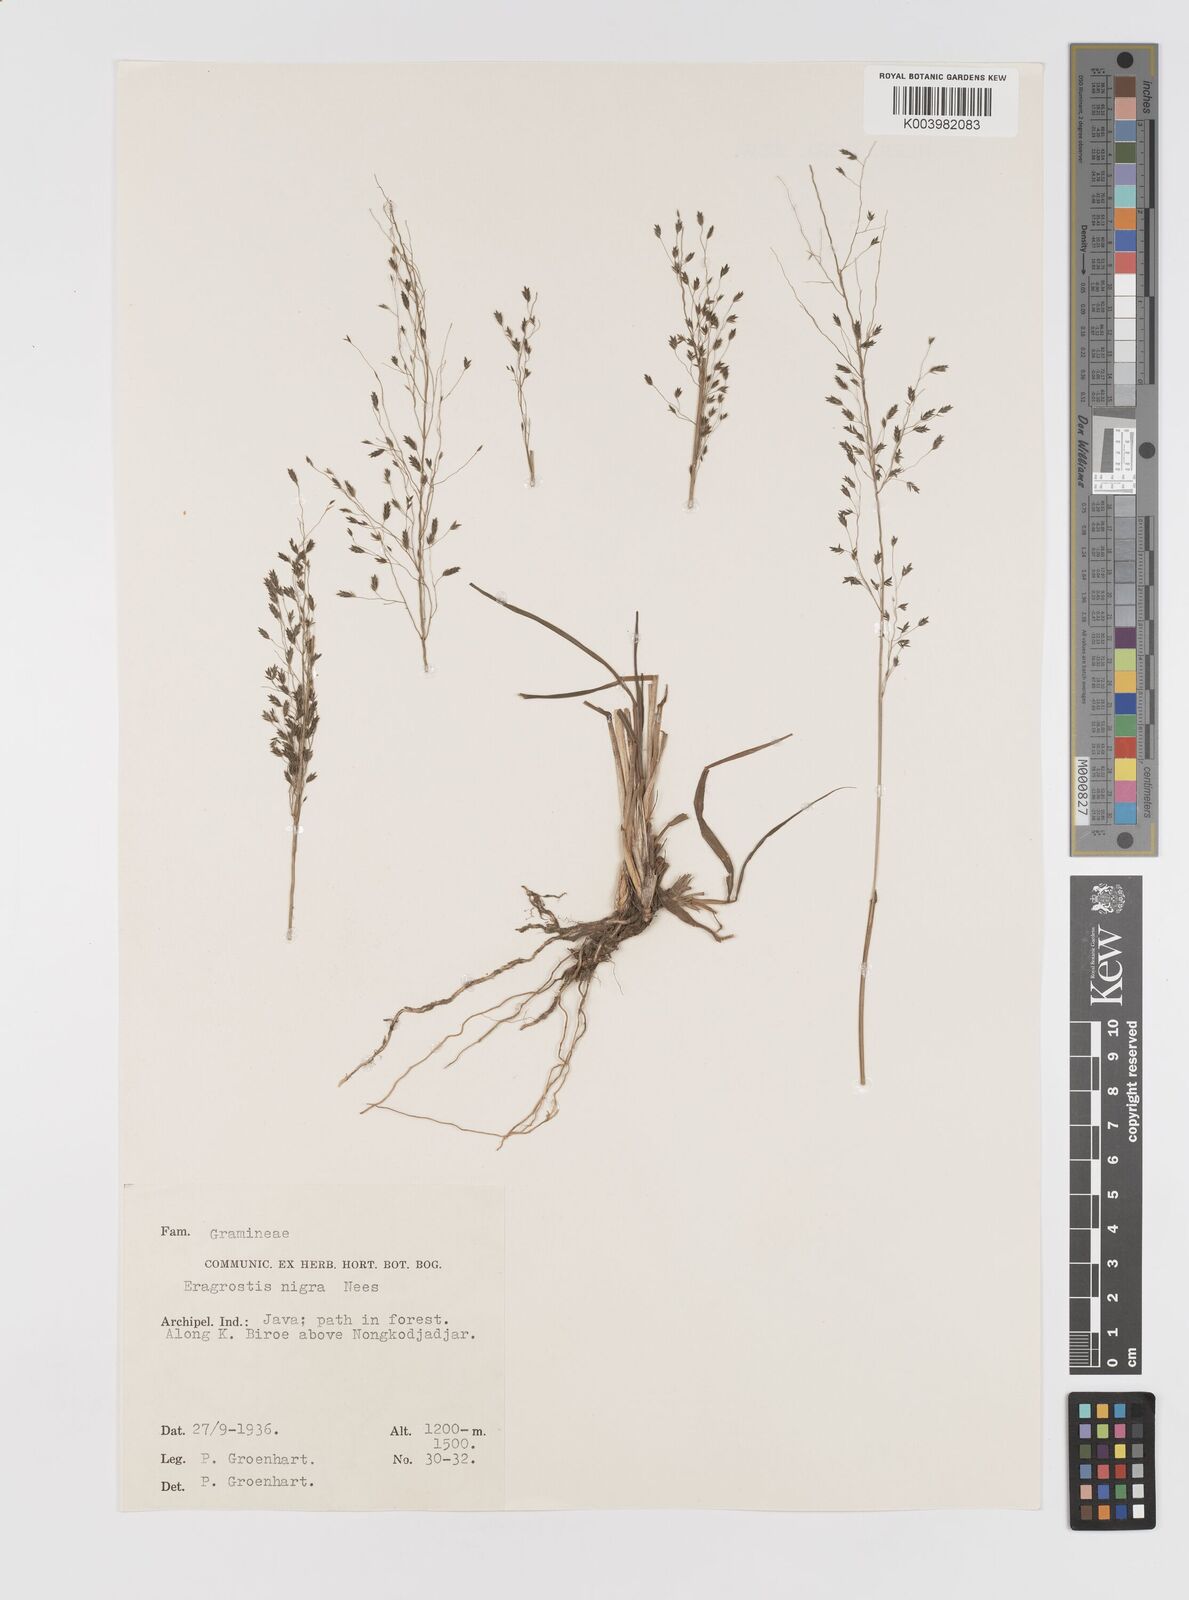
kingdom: Plantae
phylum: Tracheophyta
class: Liliopsida
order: Poales
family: Poaceae
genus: Eragrostis
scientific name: Eragrostis nigra
